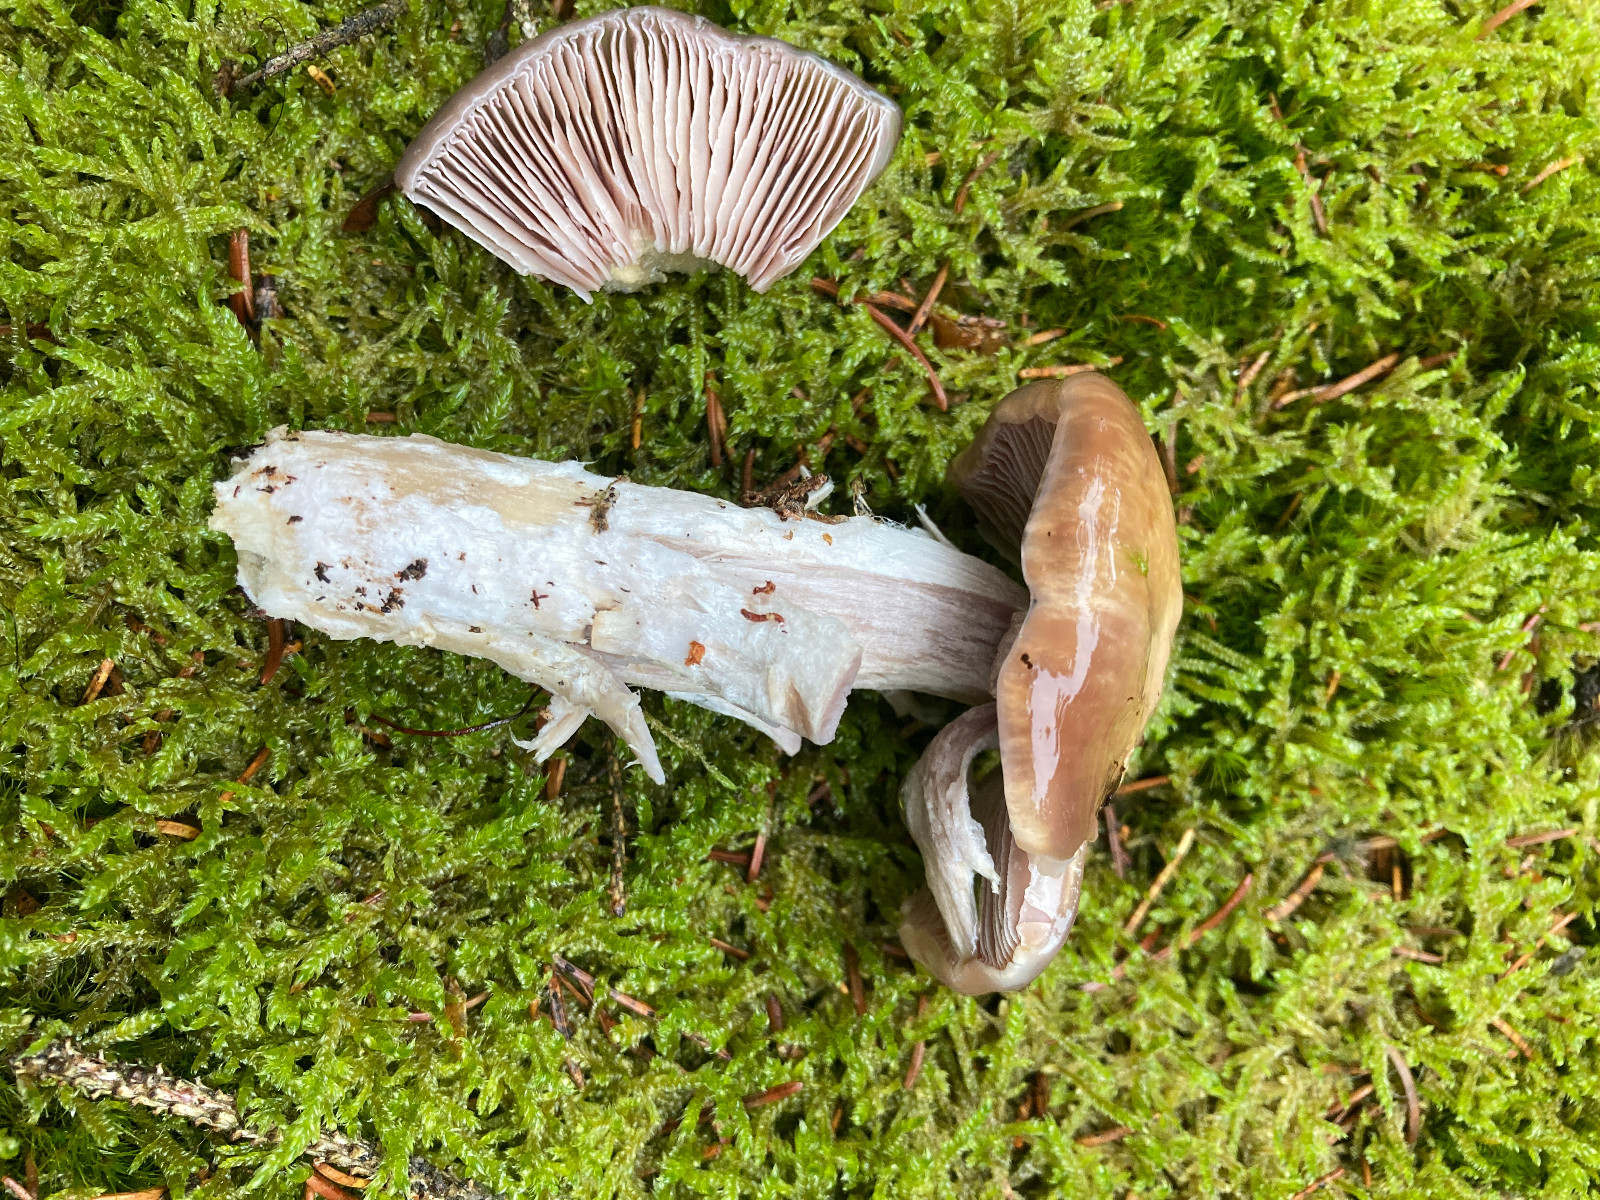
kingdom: Fungi
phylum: Basidiomycota
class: Agaricomycetes
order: Agaricales
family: Cortinariaceae
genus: Cortinarius
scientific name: Cortinarius stillatitius
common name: honningduftende slørhat
